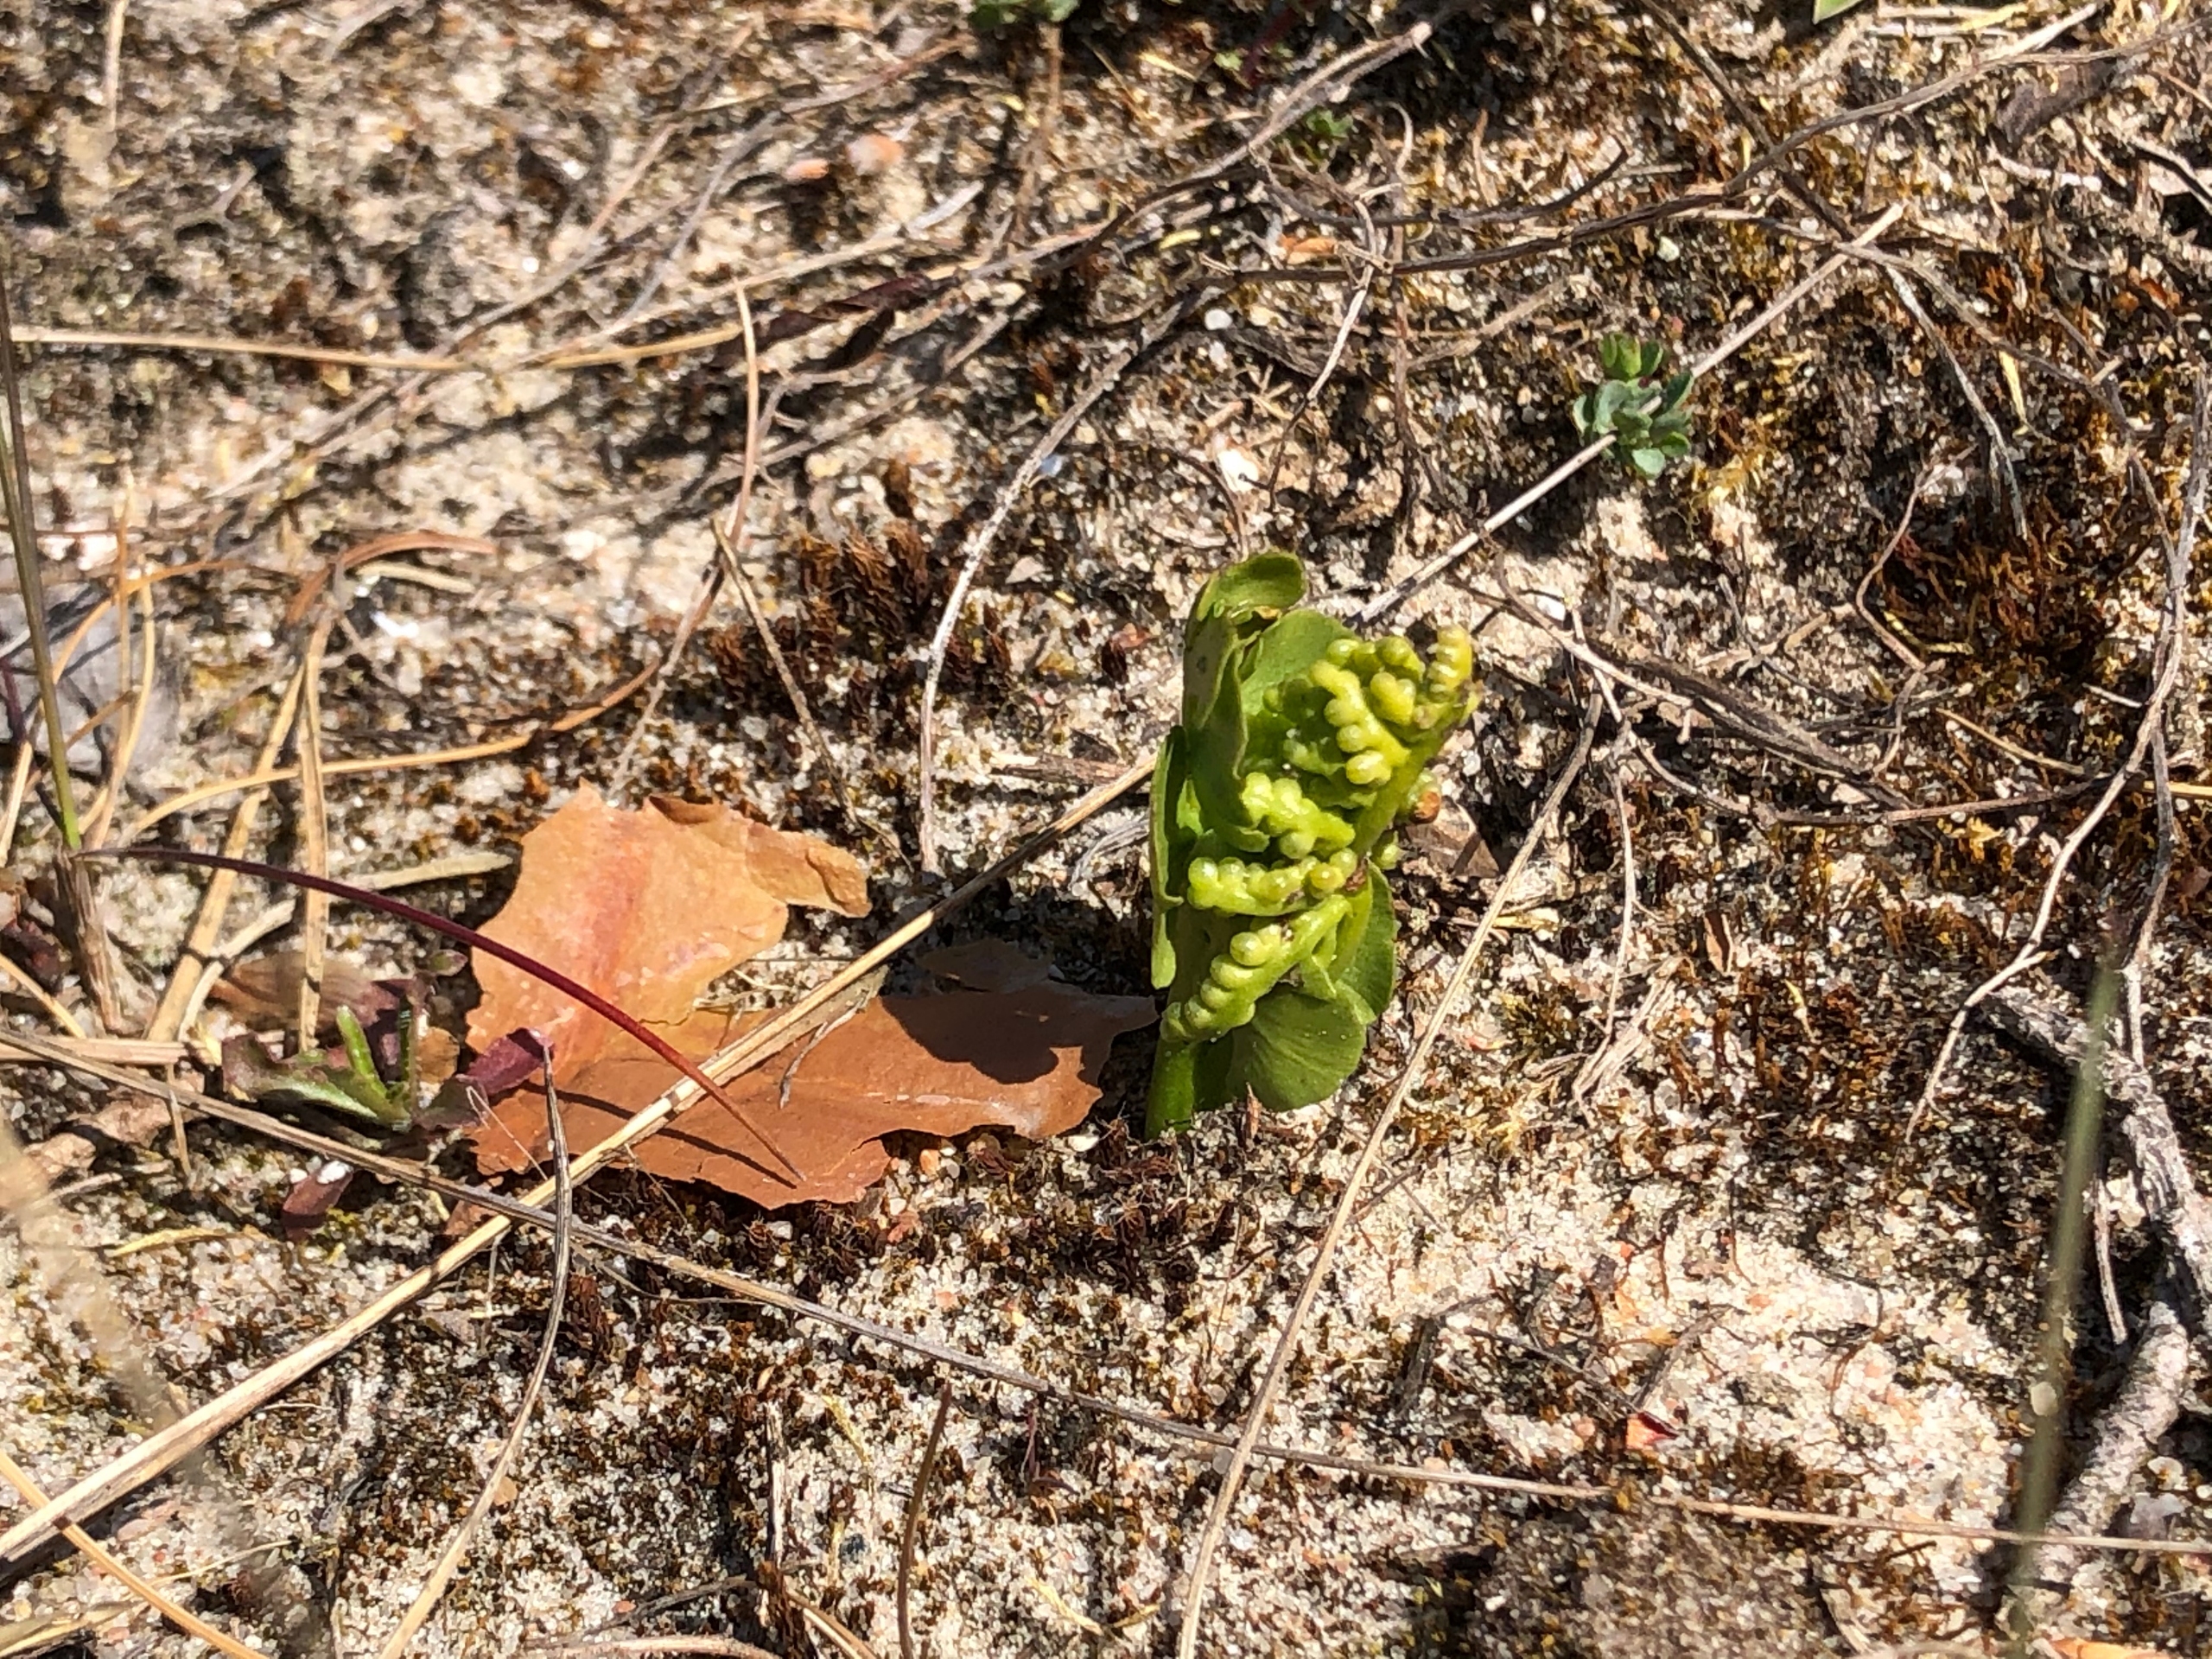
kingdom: Plantae
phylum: Tracheophyta
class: Polypodiopsida
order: Ophioglossales
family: Ophioglossaceae
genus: Botrychium
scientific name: Botrychium lunaria
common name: Almindelig månerude
